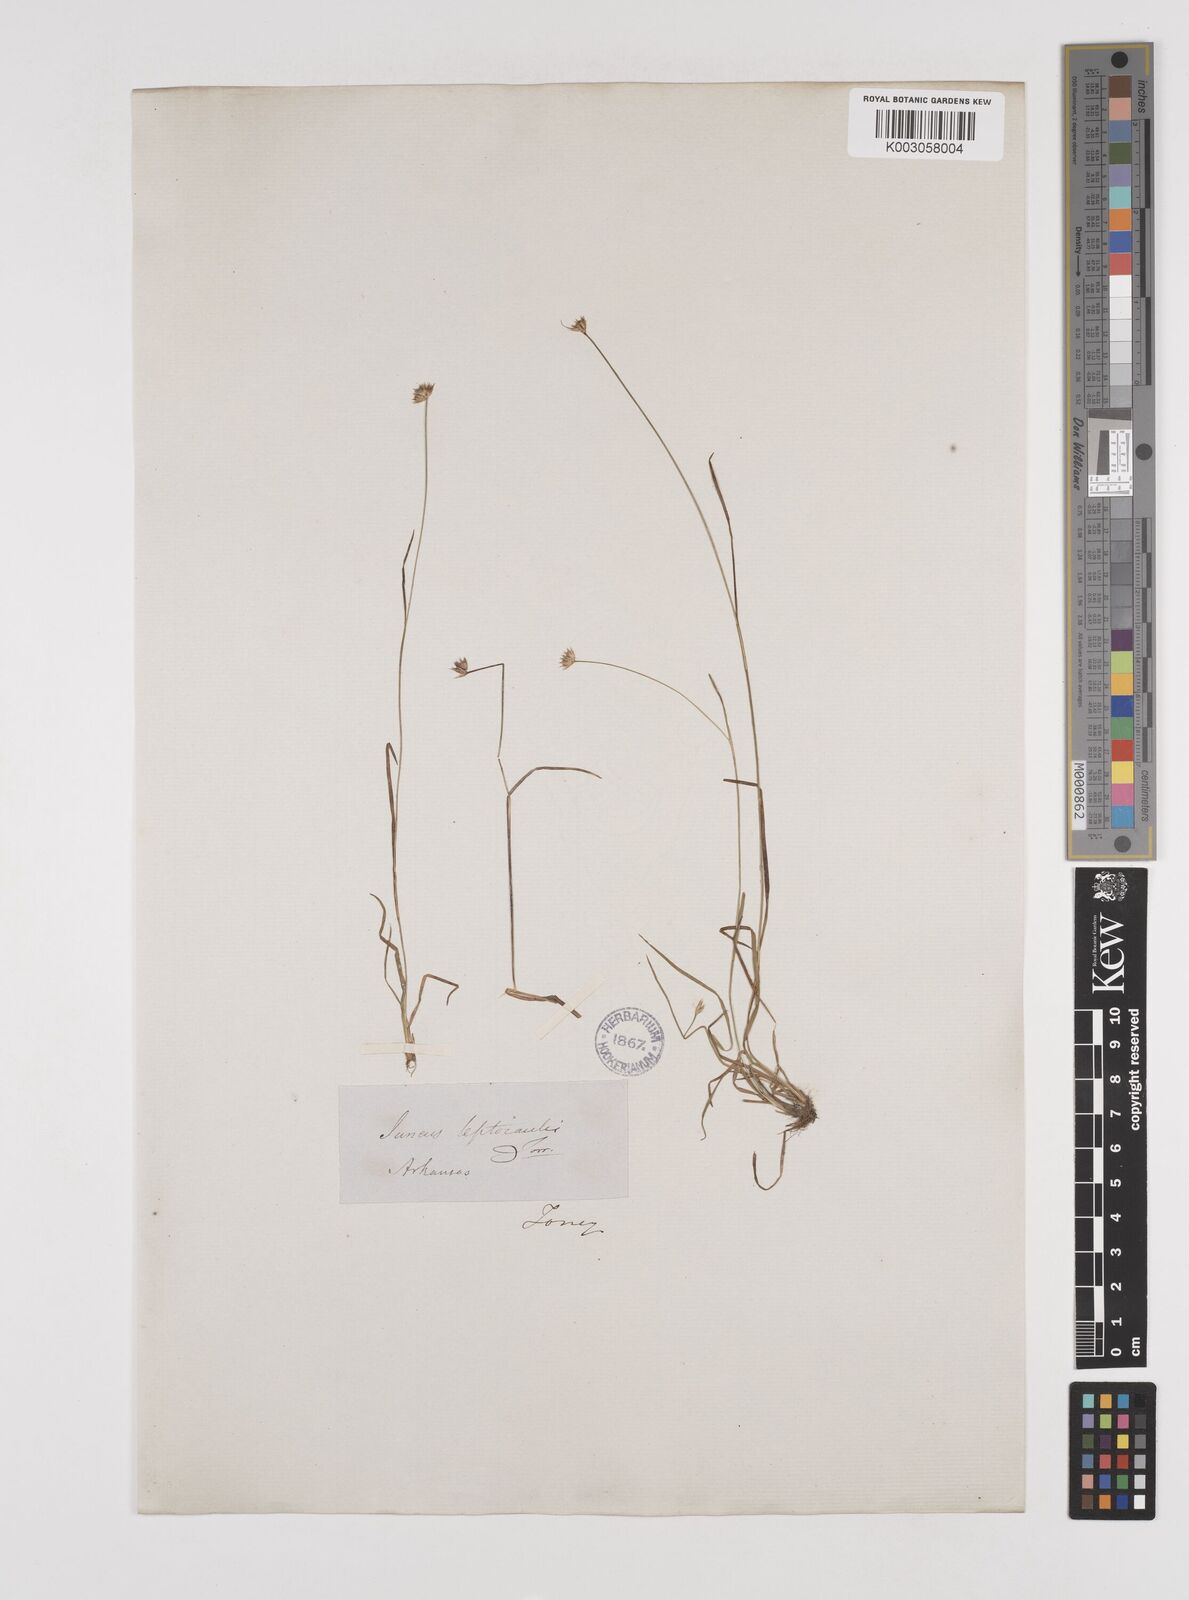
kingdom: Plantae
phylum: Tracheophyta
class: Liliopsida
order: Poales
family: Juncaceae
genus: Juncus
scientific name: Juncus filipendulus
